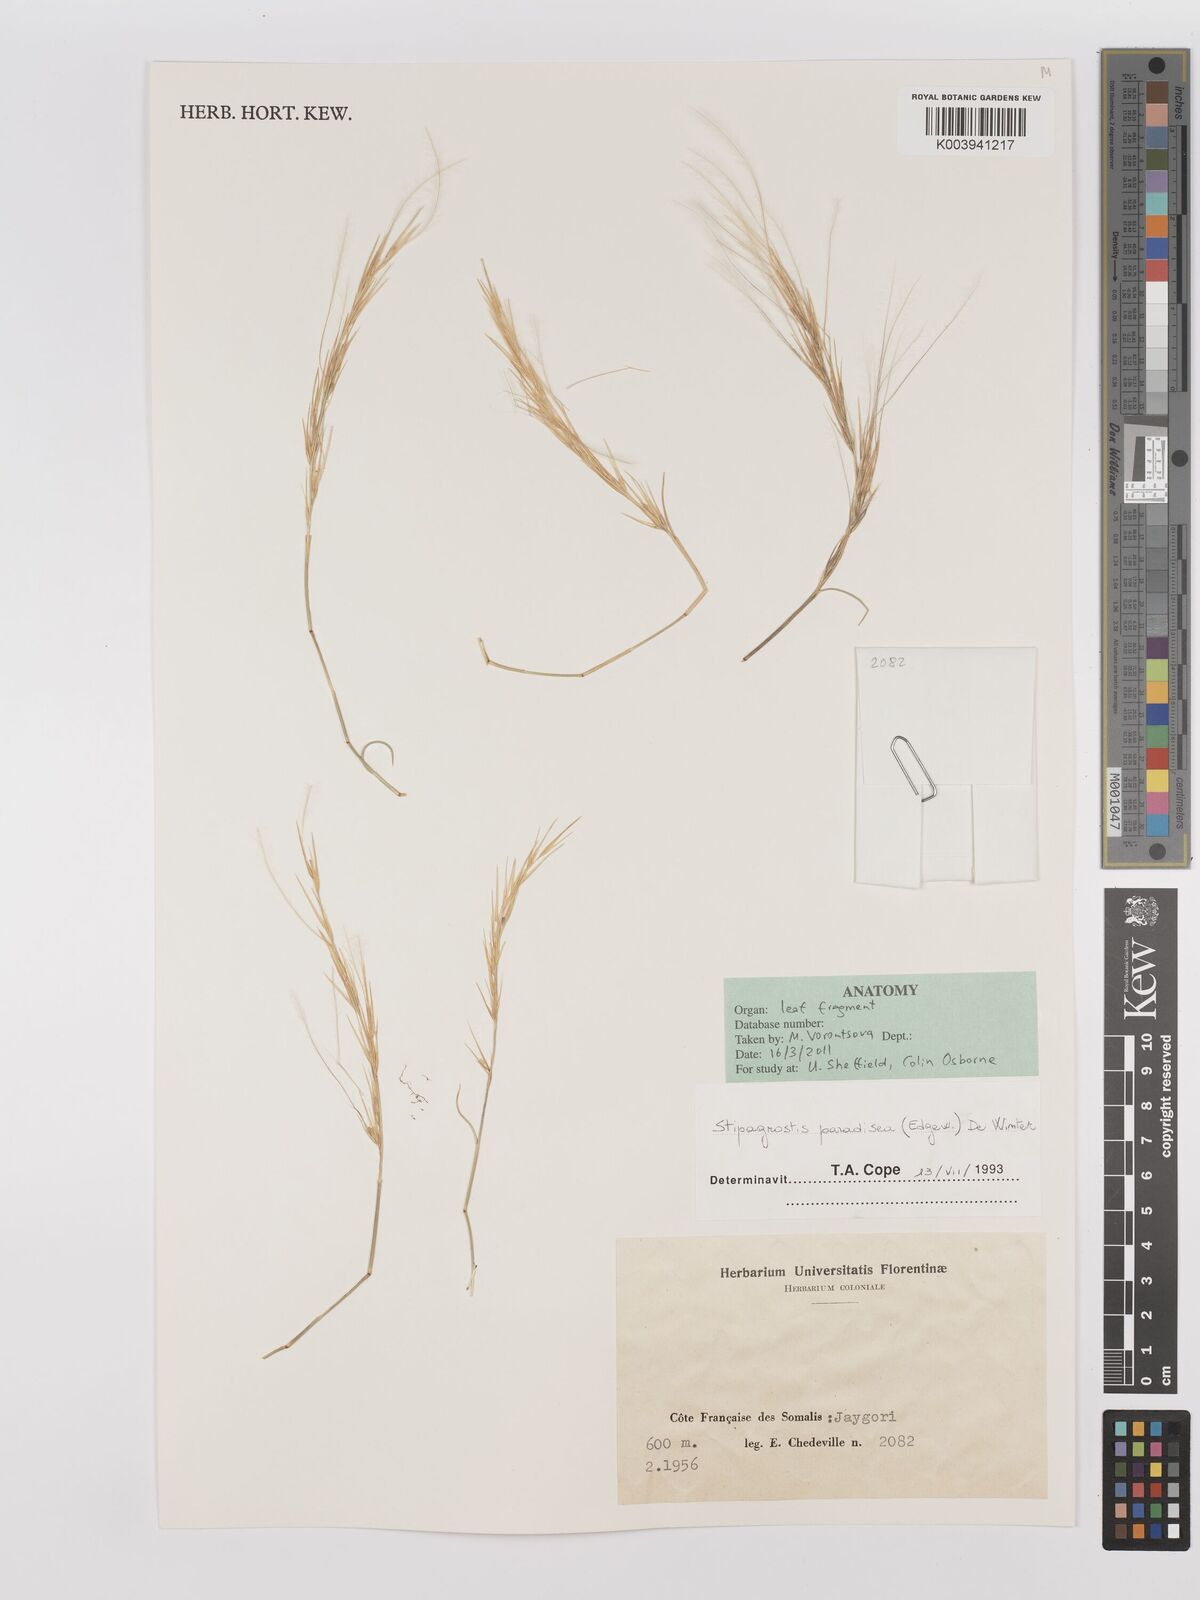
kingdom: Plantae
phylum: Tracheophyta
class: Liliopsida
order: Poales
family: Poaceae
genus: Stipagrostis
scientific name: Stipagrostis paradisea
